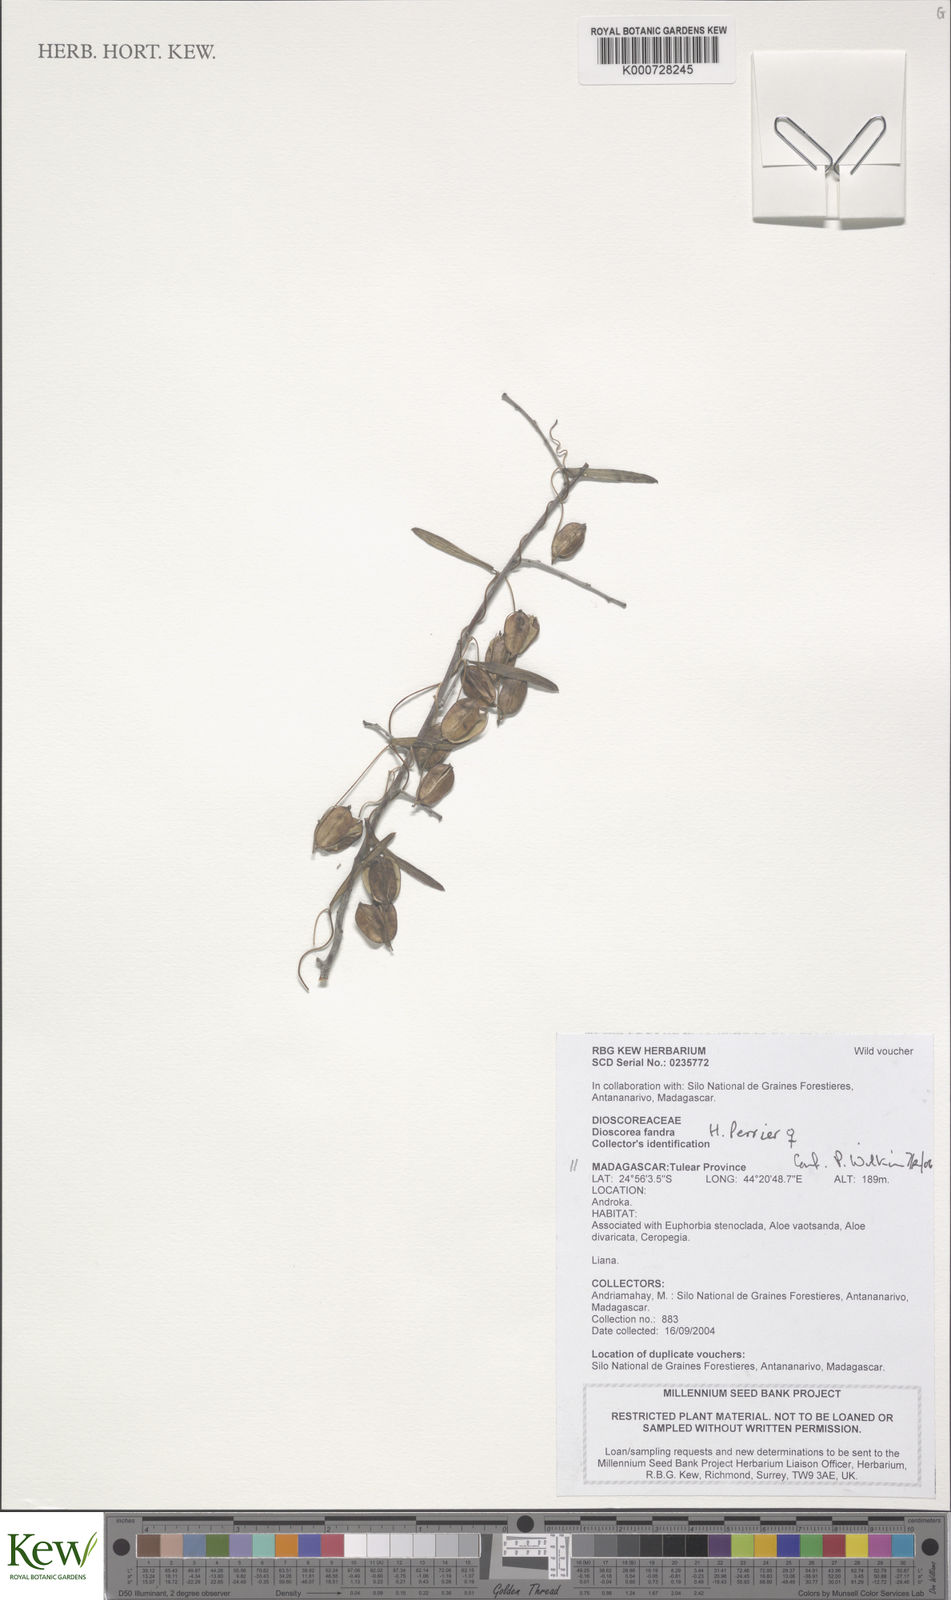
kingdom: Plantae
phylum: Tracheophyta
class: Liliopsida
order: Dioscoreales
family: Dioscoreaceae
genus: Dioscorea
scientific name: Dioscorea fandra
